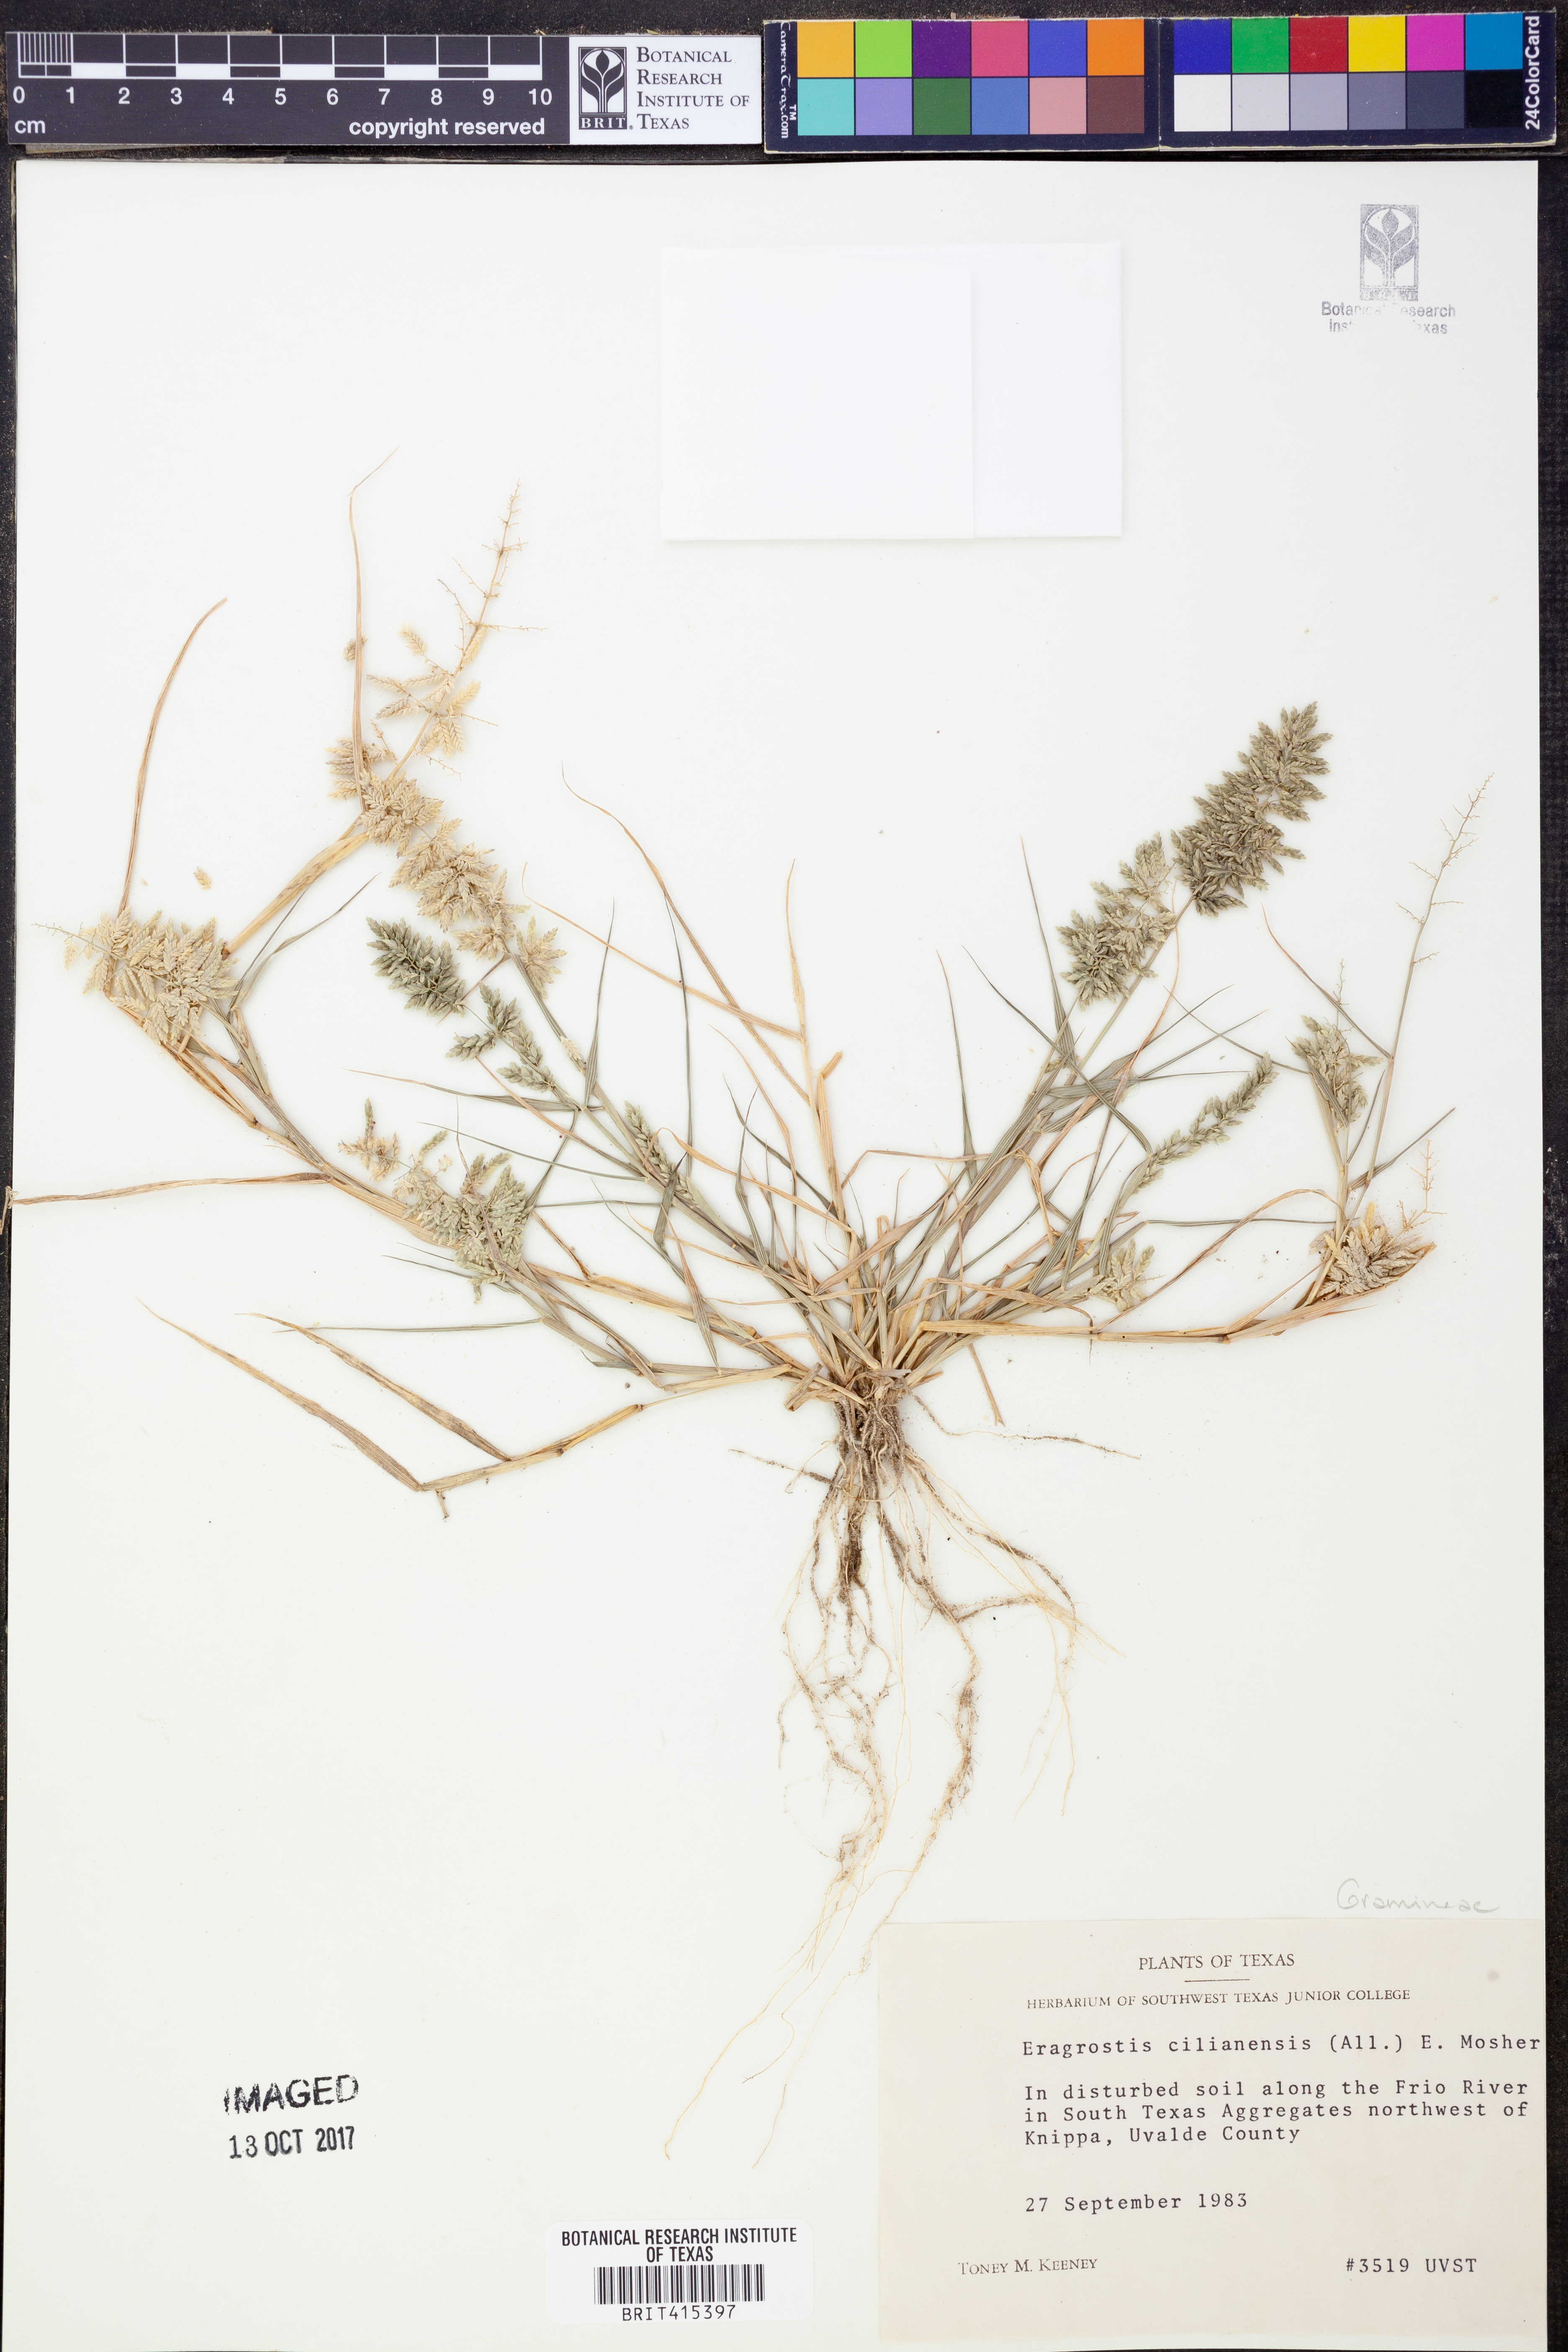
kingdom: Plantae
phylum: Tracheophyta
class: Liliopsida
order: Poales
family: Poaceae
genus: Eragrostis
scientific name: Eragrostis cilianensis
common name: Stinkgrass
